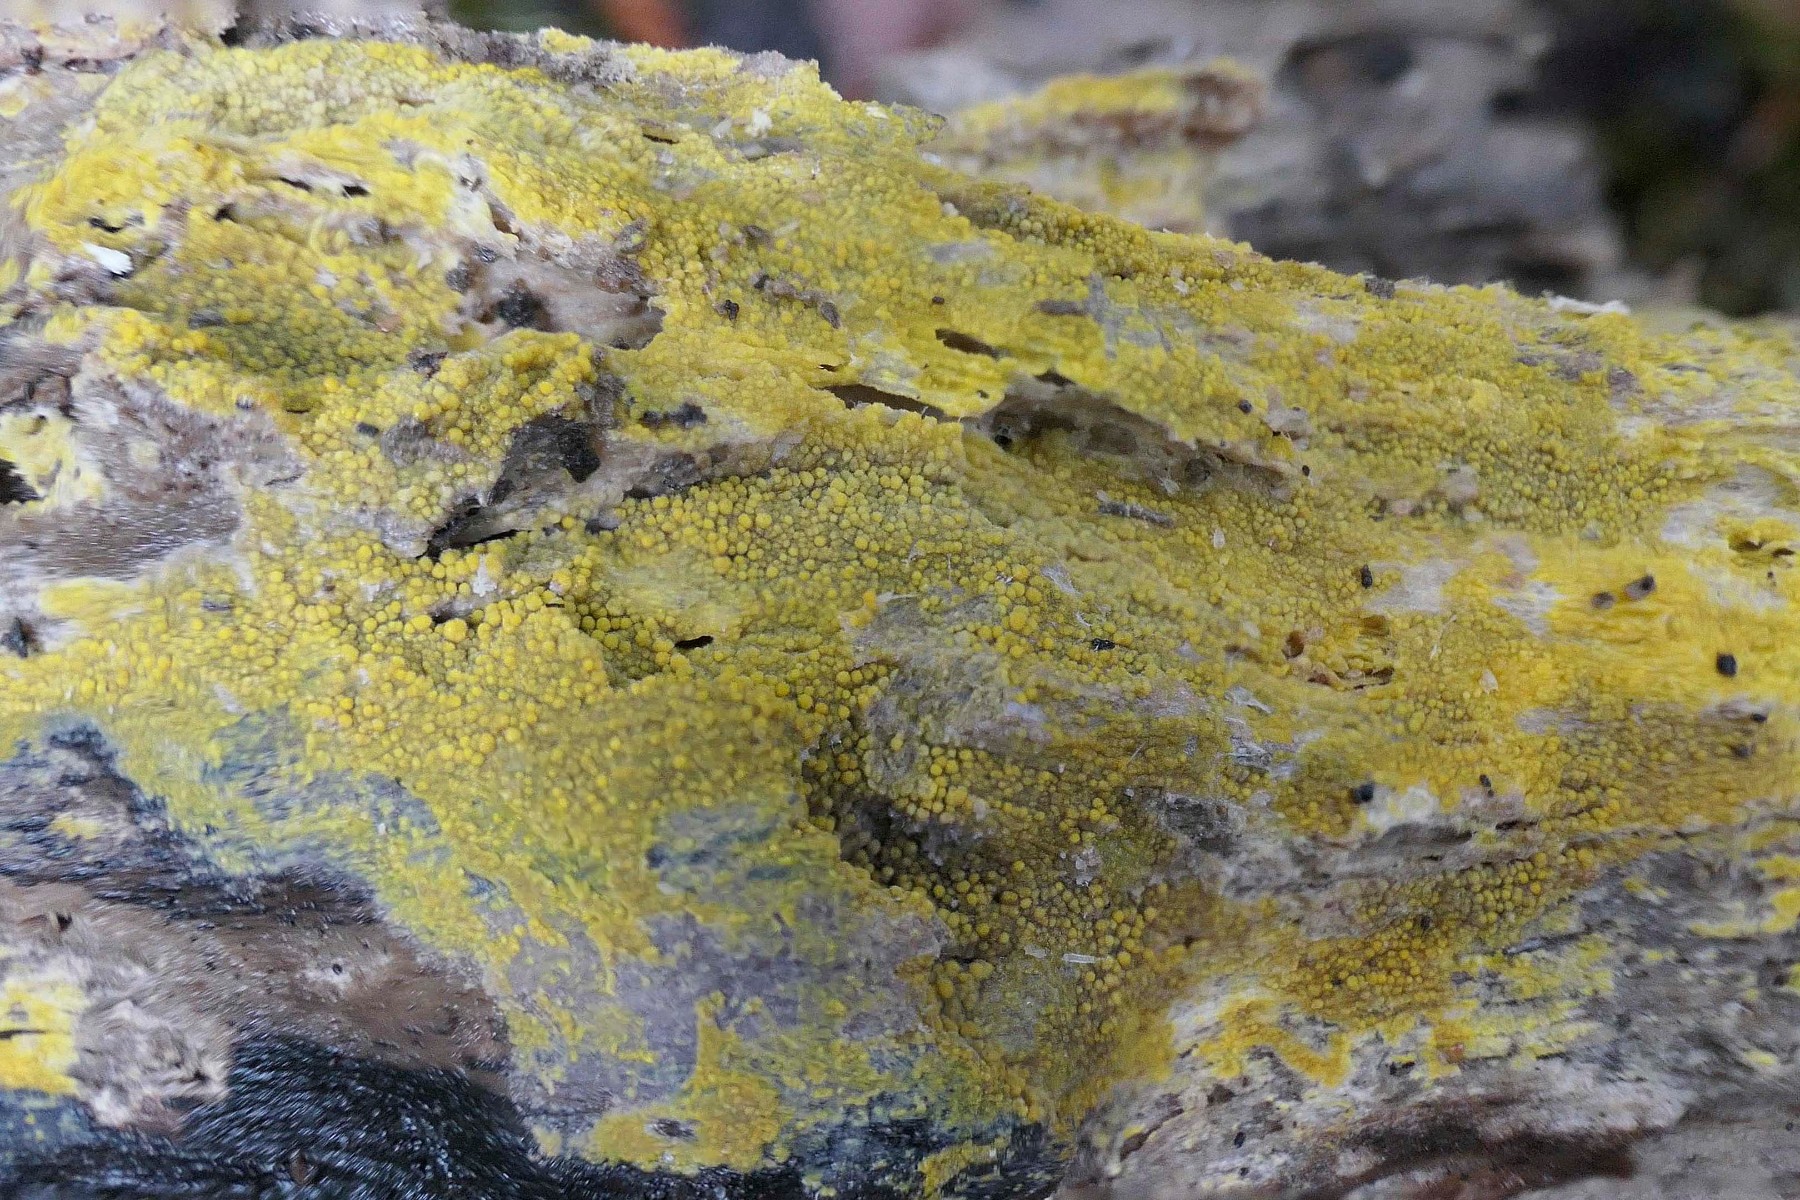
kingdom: Fungi
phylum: Basidiomycota
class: Agaricomycetes
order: Polyporales
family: Meruliaceae
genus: Phlebiodontia
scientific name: Phlebiodontia subochracea
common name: svovl-åresvamp
